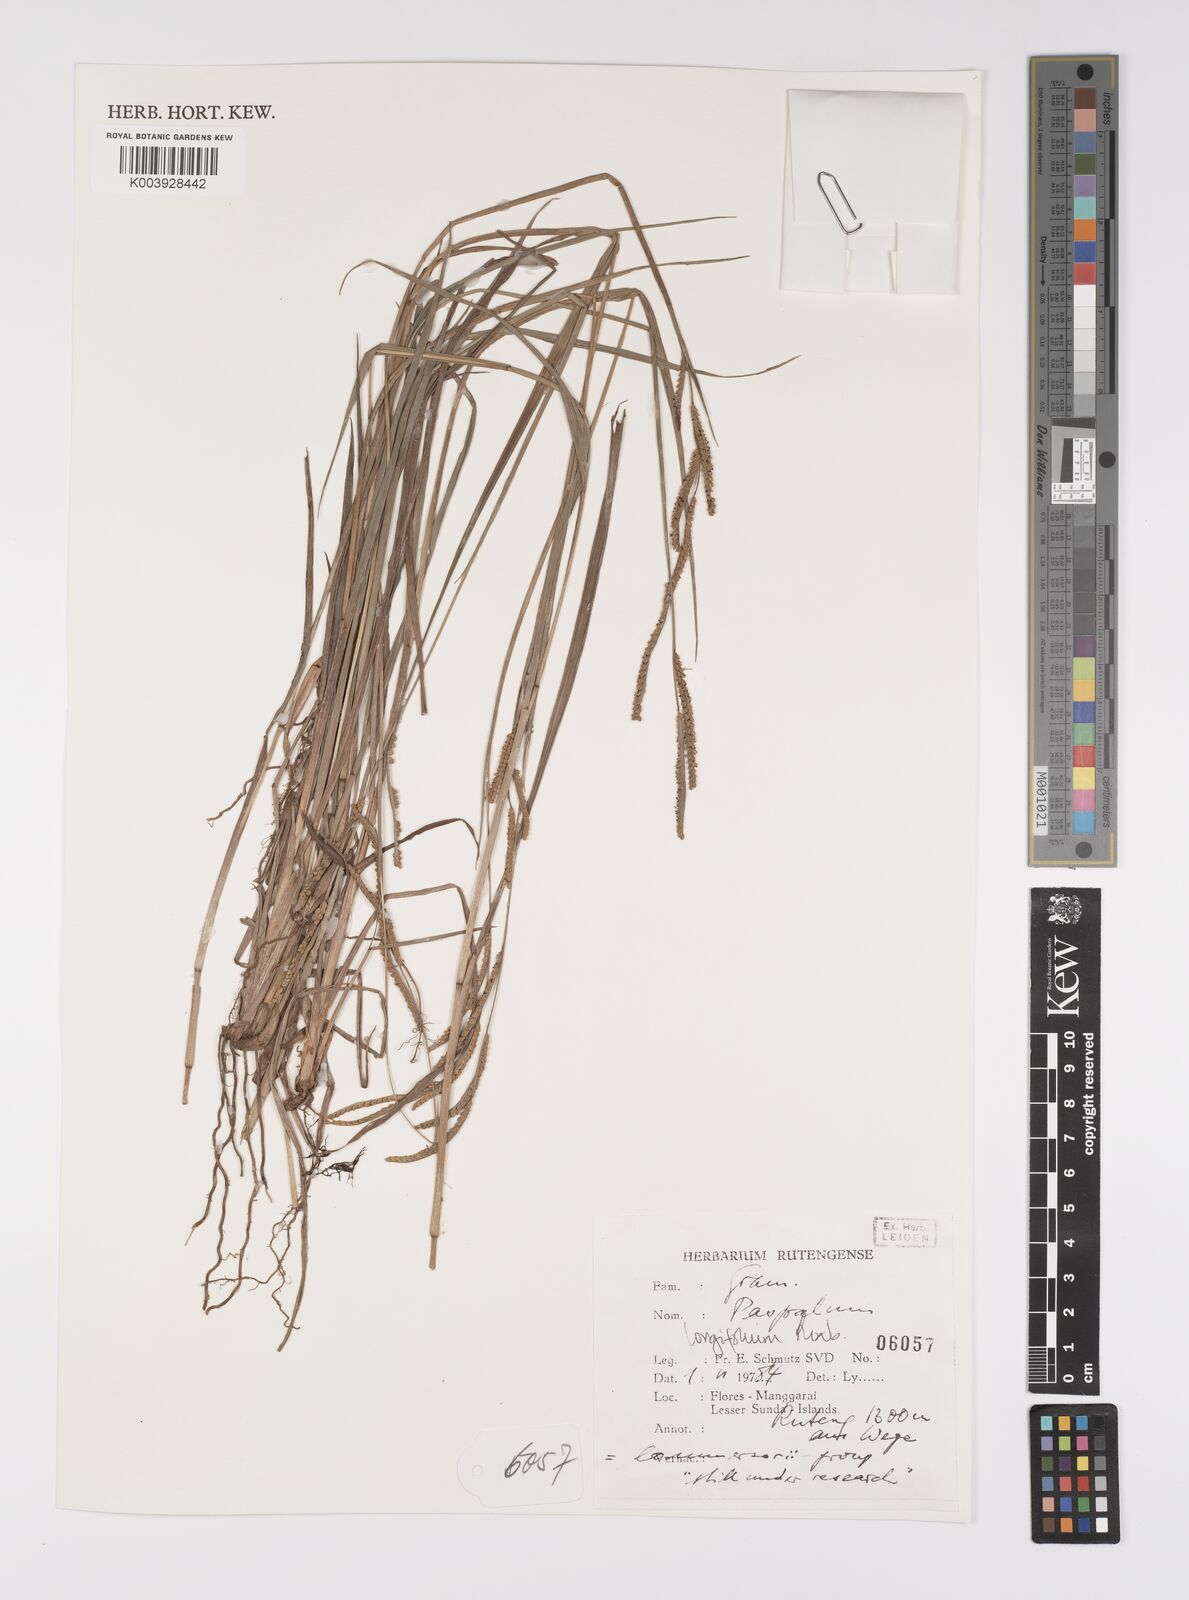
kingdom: Plantae
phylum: Tracheophyta
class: Liliopsida
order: Poales
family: Poaceae
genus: Paspalum
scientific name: Paspalum sumatrense
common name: Long-leaved paspalum
